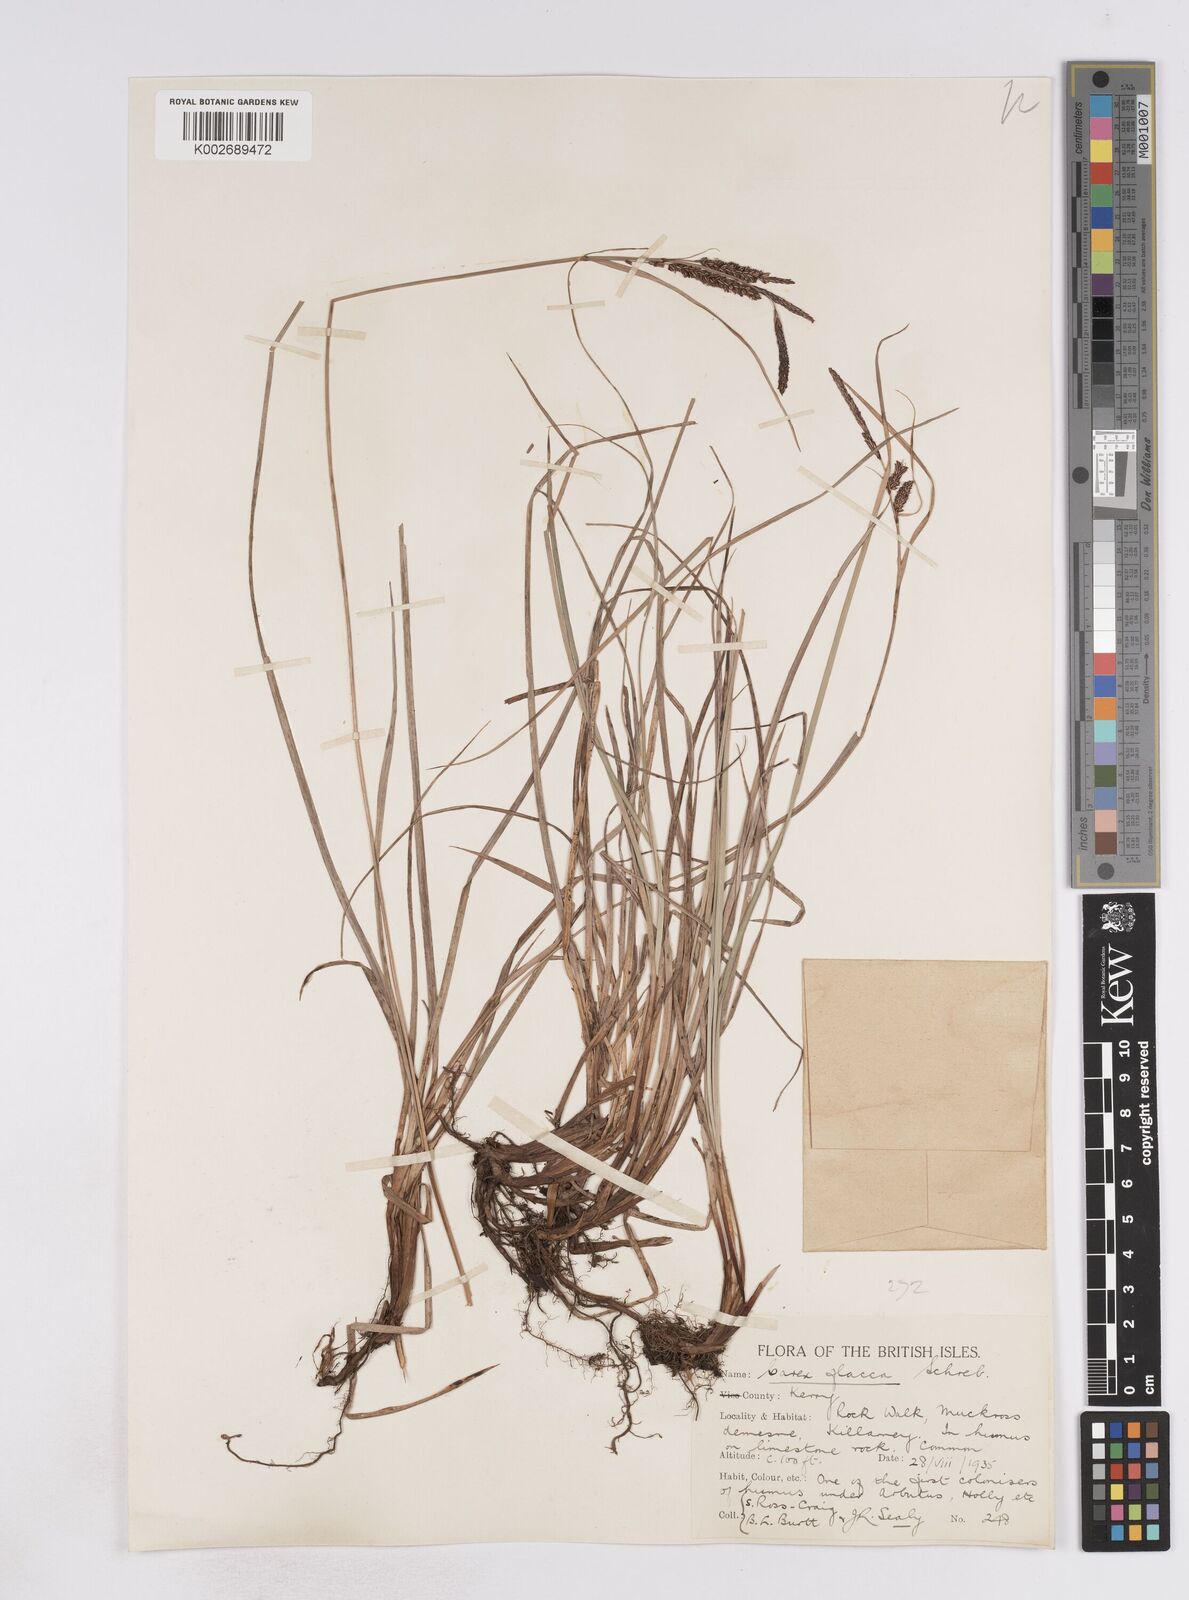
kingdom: Plantae
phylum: Tracheophyta
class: Liliopsida
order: Poales
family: Cyperaceae
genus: Carex
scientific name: Carex flacca
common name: Glaucous sedge
